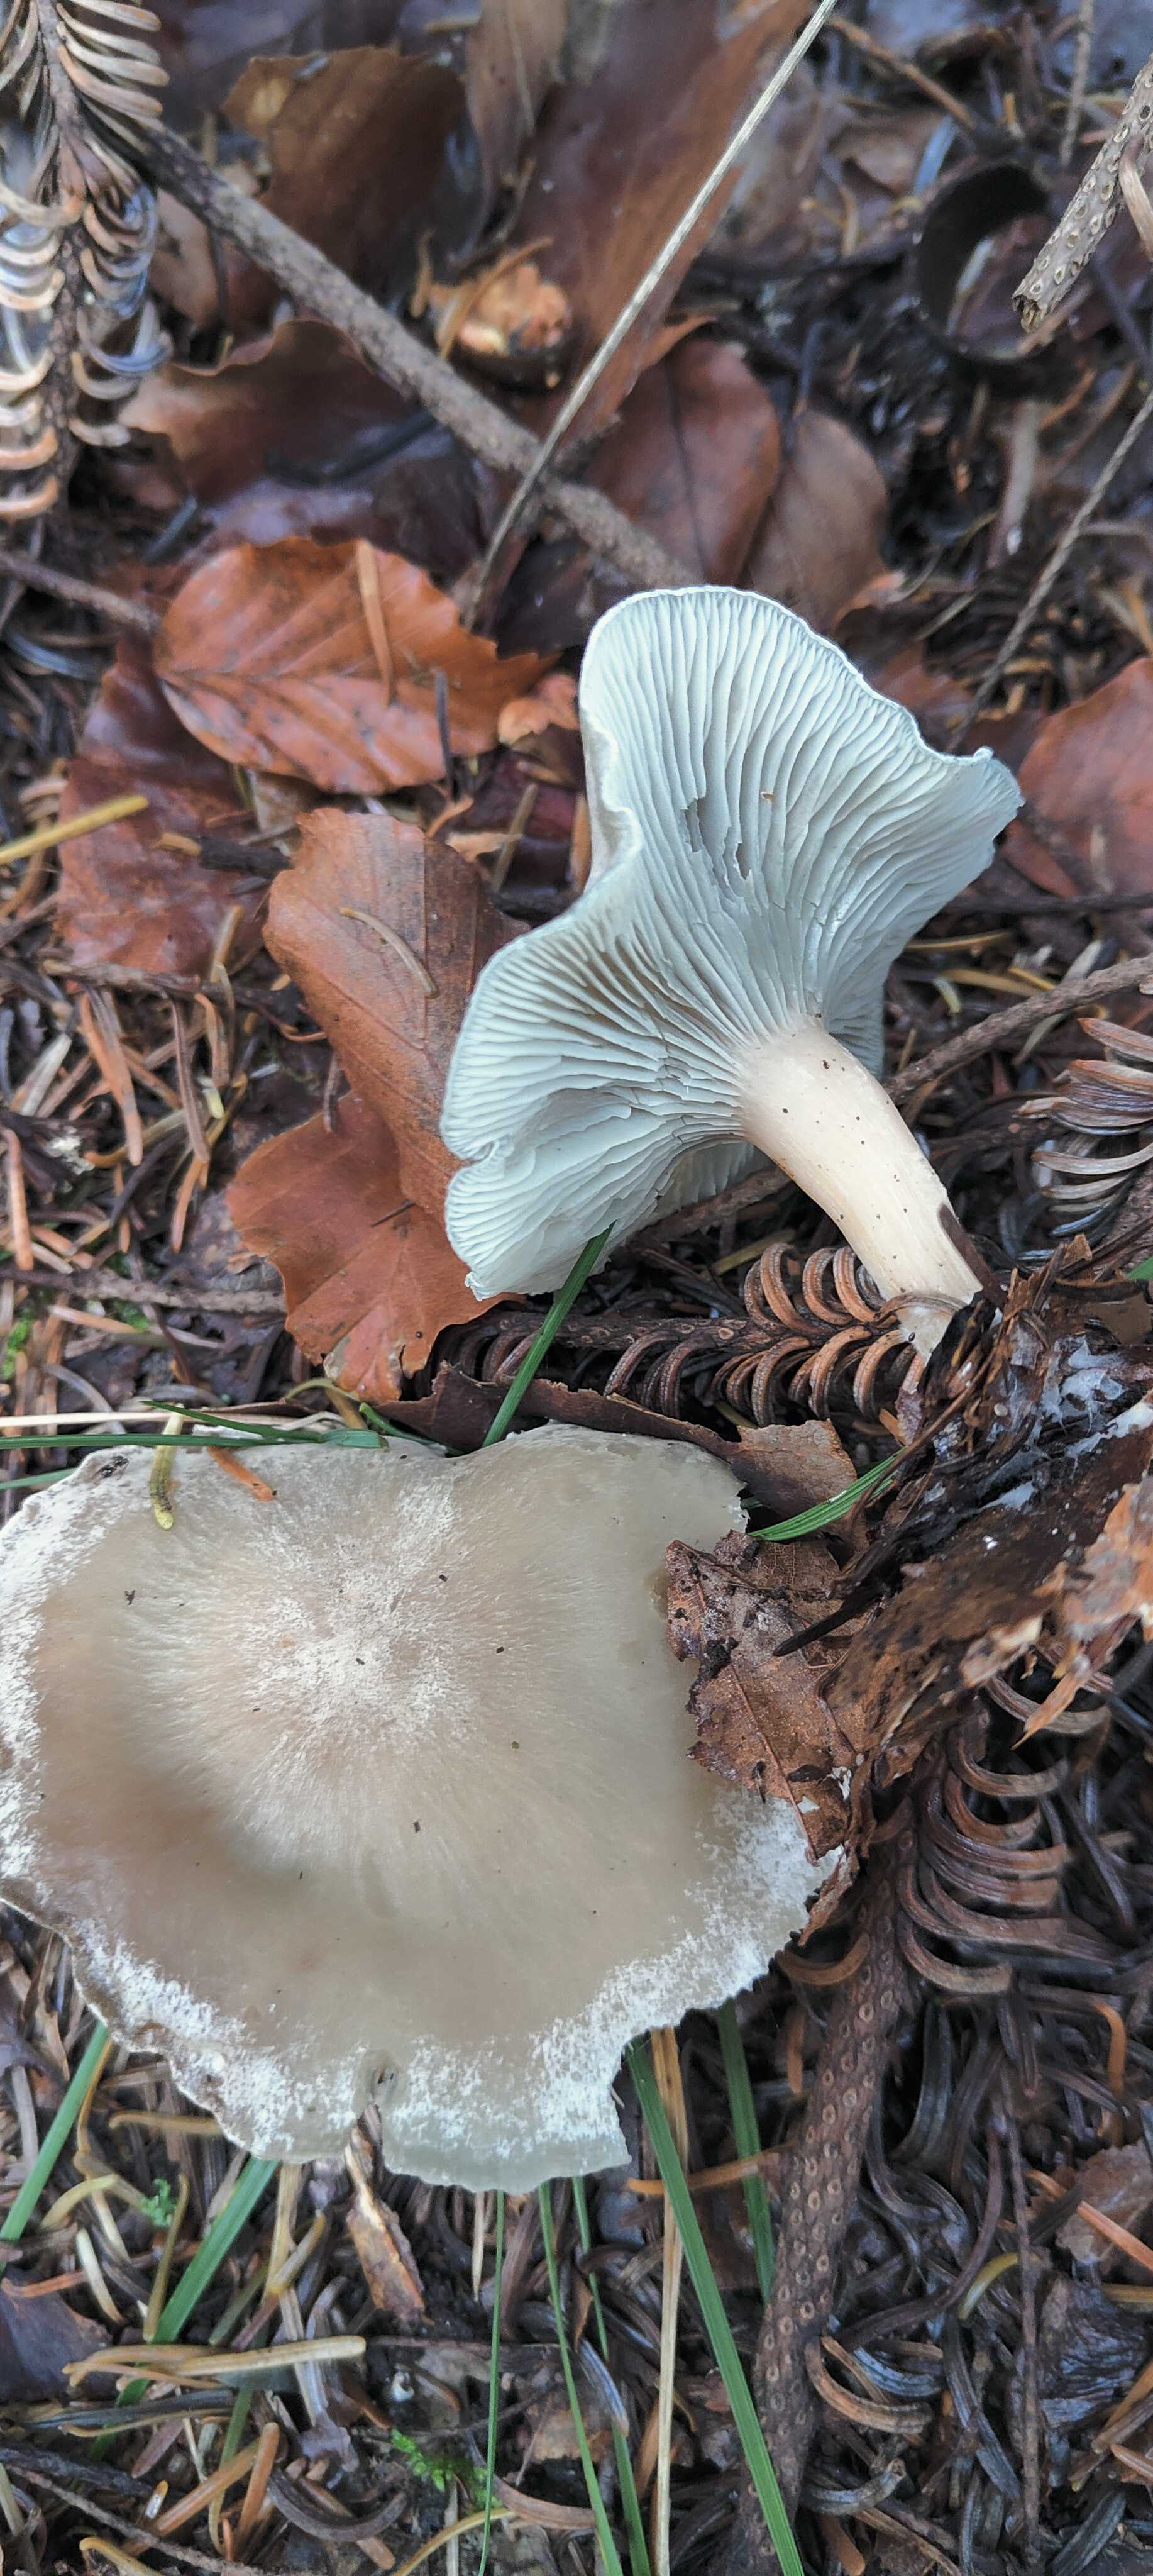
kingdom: Fungi
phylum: Basidiomycota
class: Agaricomycetes
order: Agaricales
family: Tricholomataceae
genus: Clitocybe
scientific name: Clitocybe odora
